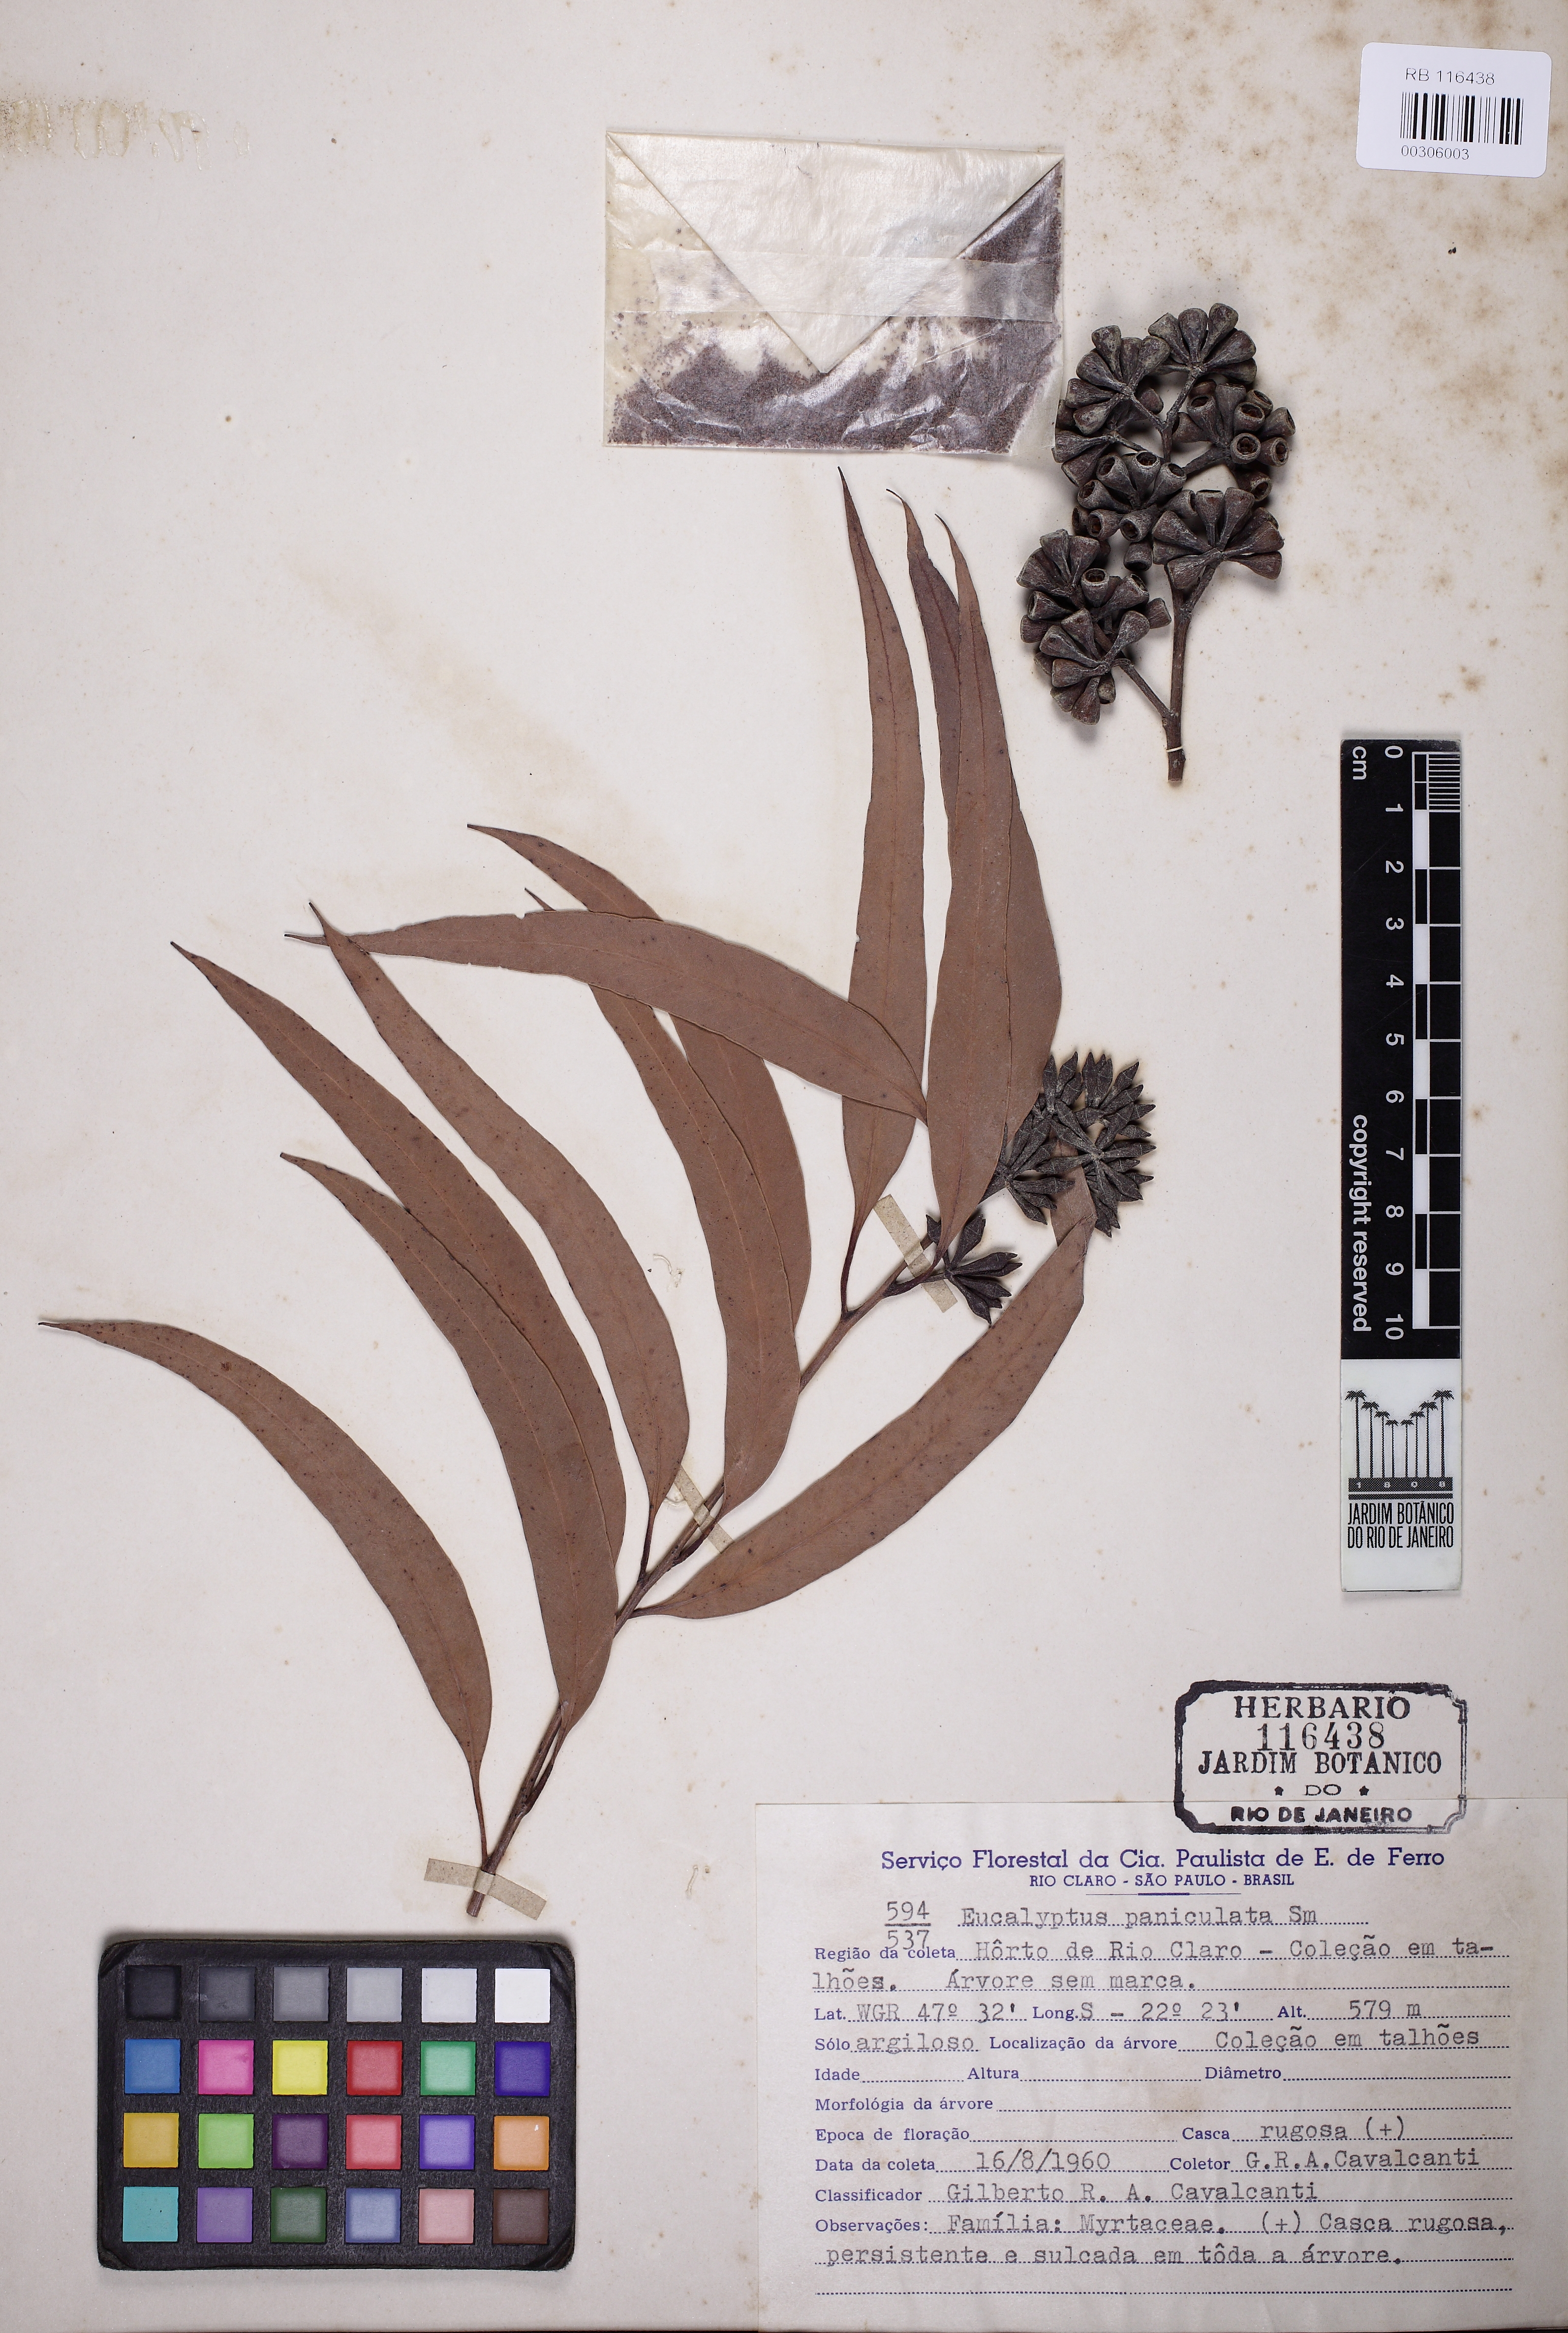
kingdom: Plantae
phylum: Tracheophyta
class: Magnoliopsida
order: Myrtales
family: Myrtaceae
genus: Eucalyptus
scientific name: Eucalyptus paniculata
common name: Gray ironbark
